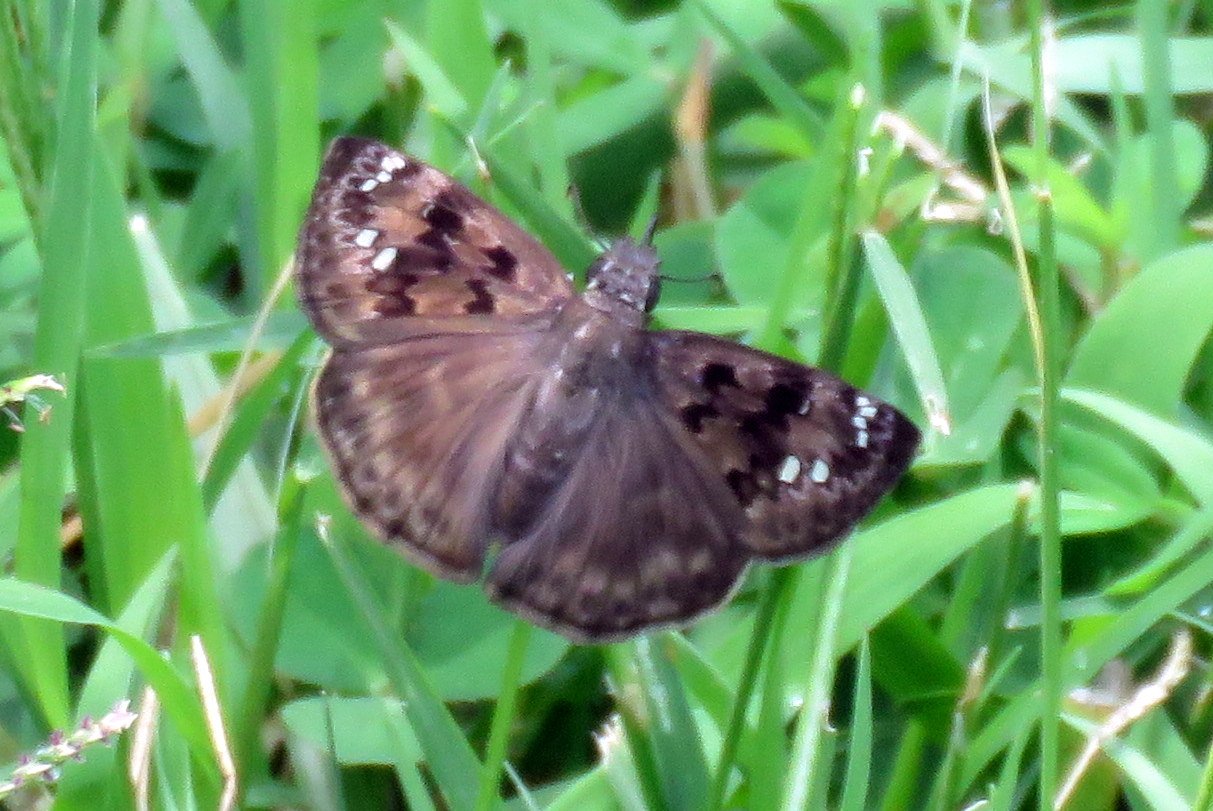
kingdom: Animalia
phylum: Arthropoda
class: Insecta
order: Lepidoptera
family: Hesperiidae
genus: Gesta
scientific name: Gesta
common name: Horace's Duskywing
